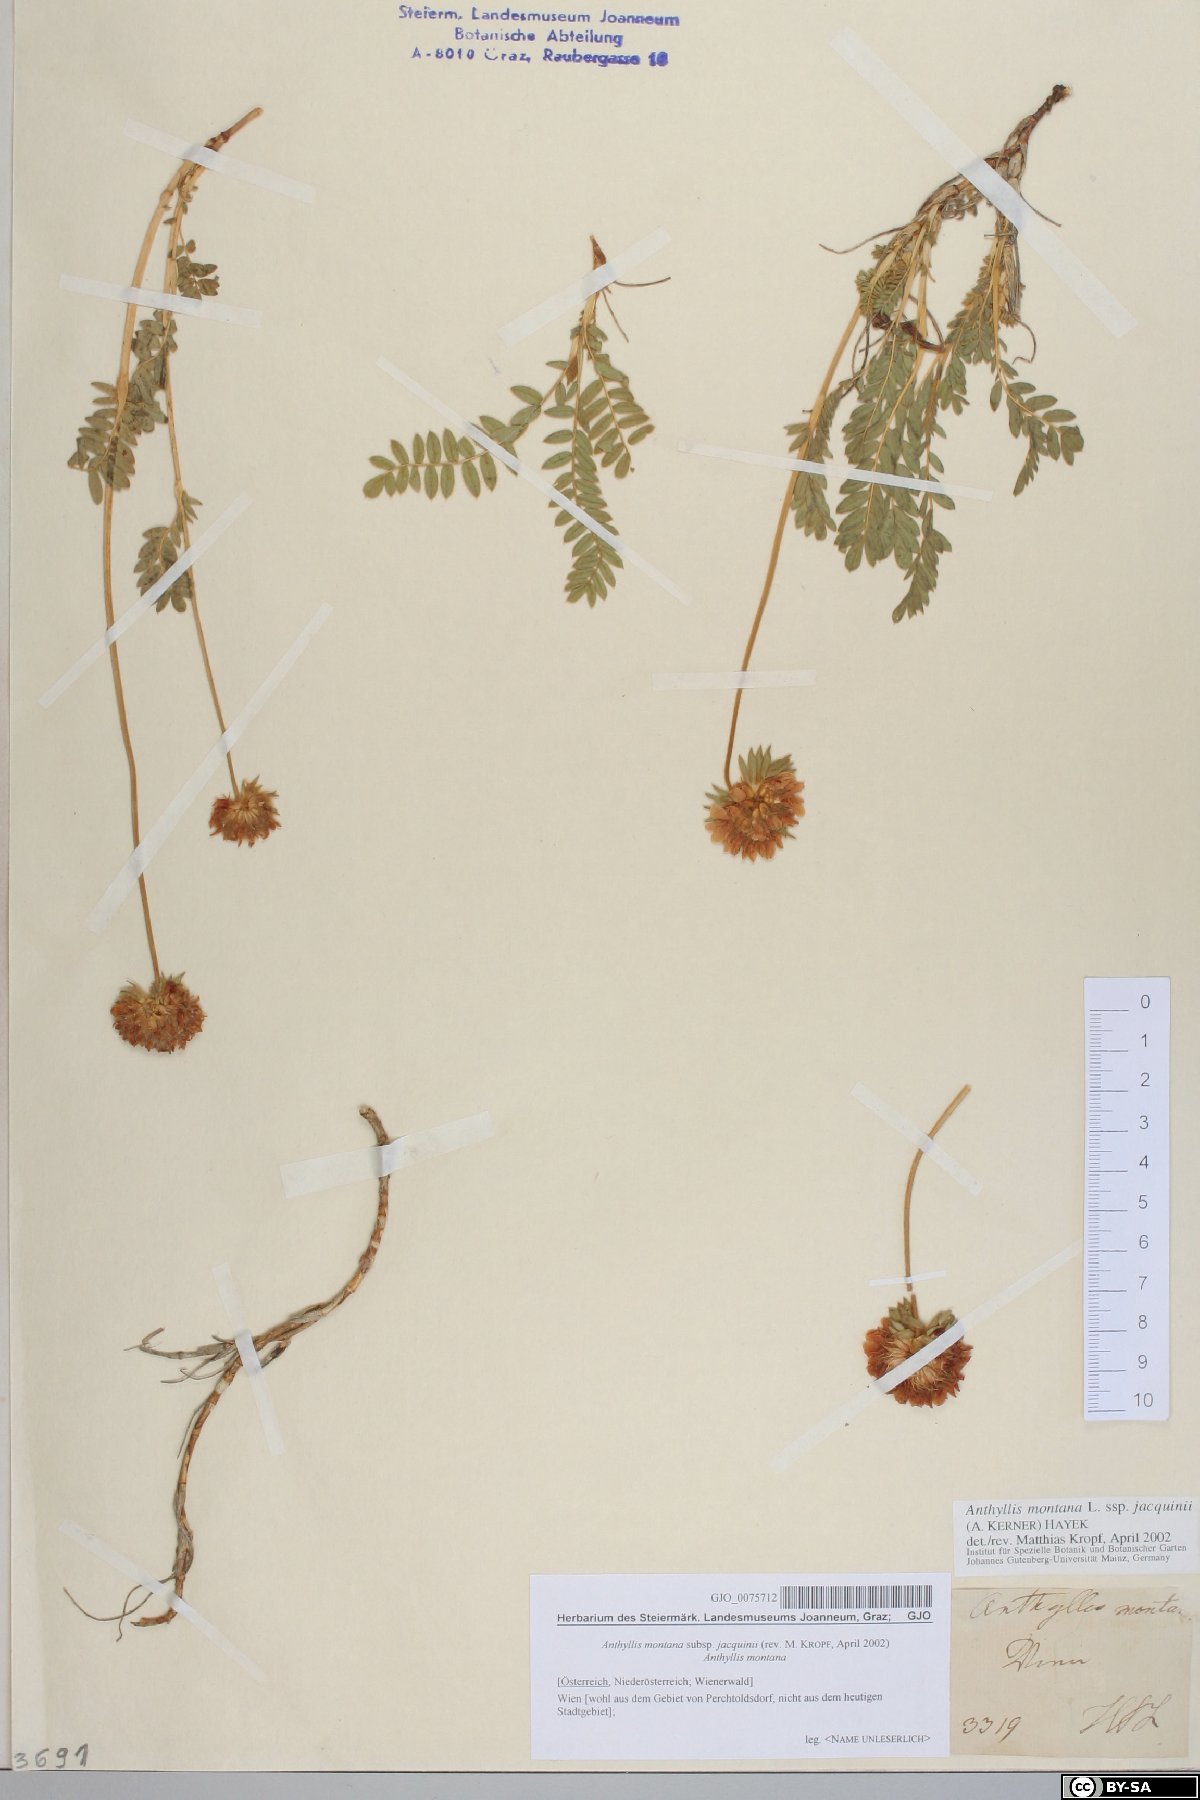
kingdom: Plantae
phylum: Tracheophyta
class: Magnoliopsida
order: Fabales
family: Fabaceae
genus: Anthyllis
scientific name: Anthyllis montana
